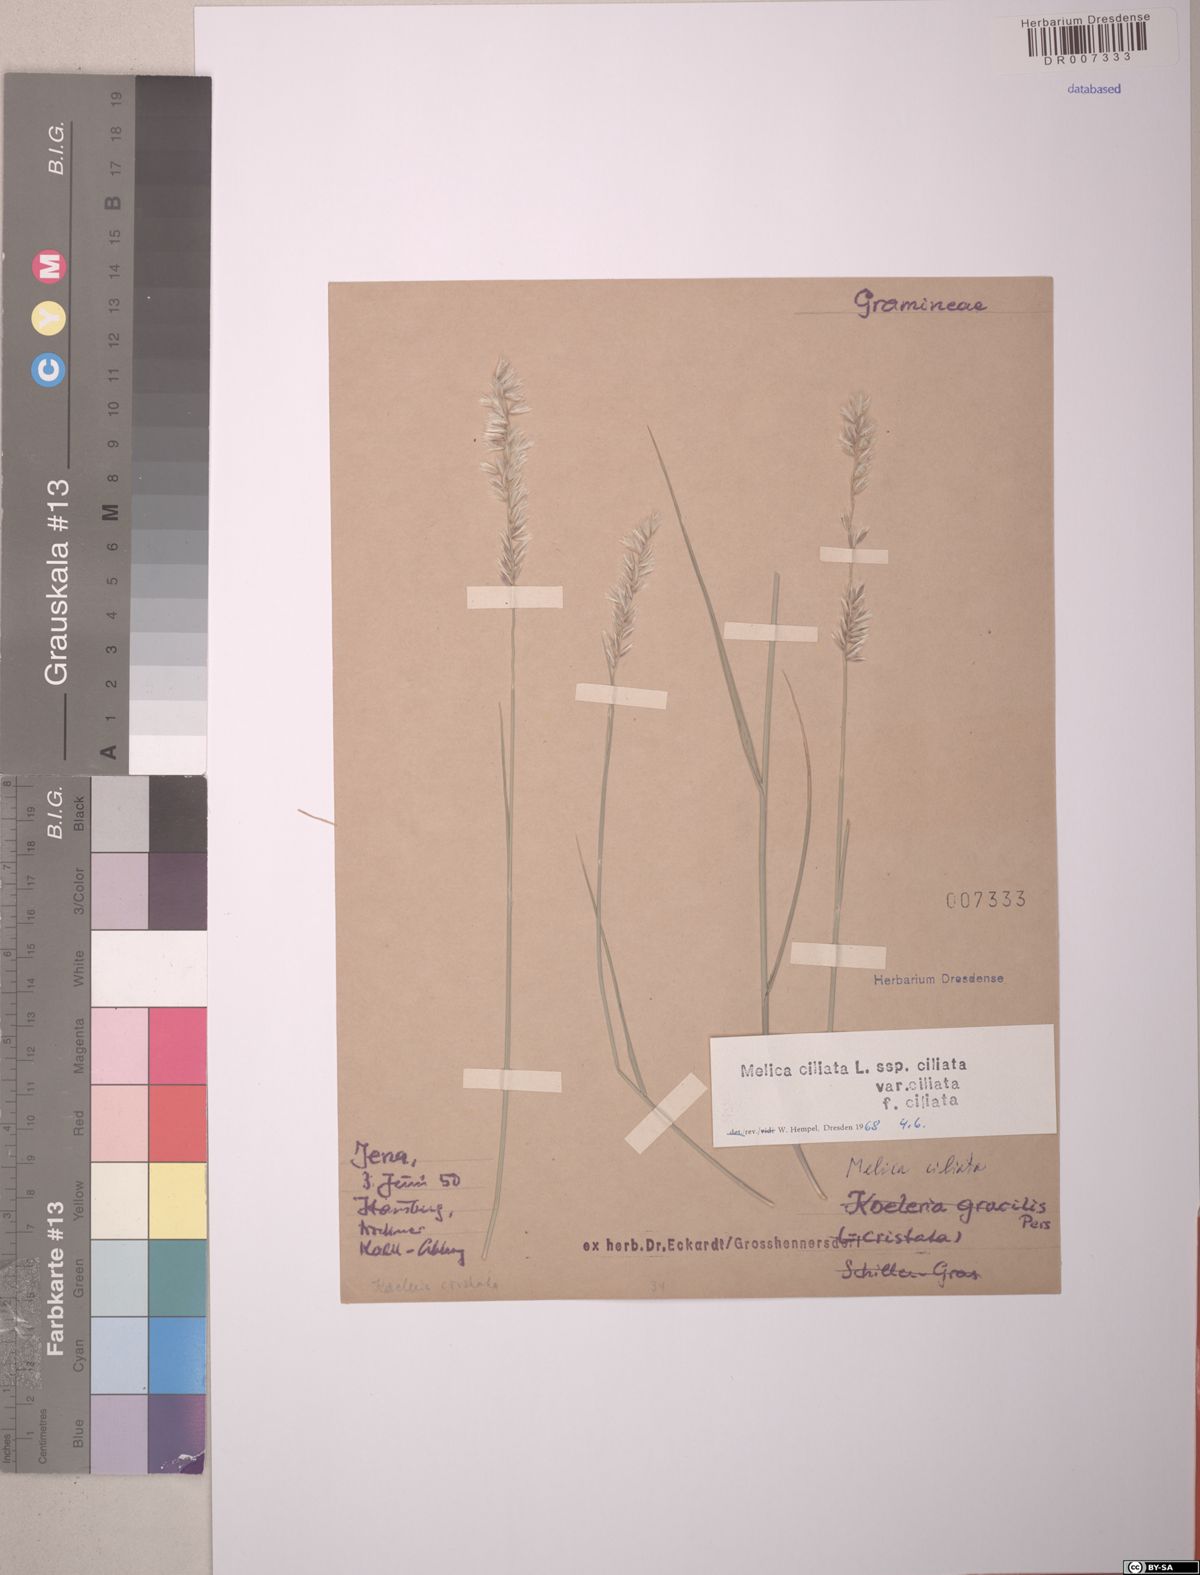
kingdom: Plantae
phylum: Tracheophyta
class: Liliopsida
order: Poales
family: Poaceae
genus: Melica
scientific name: Melica ciliata
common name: Hairy melicgrass
